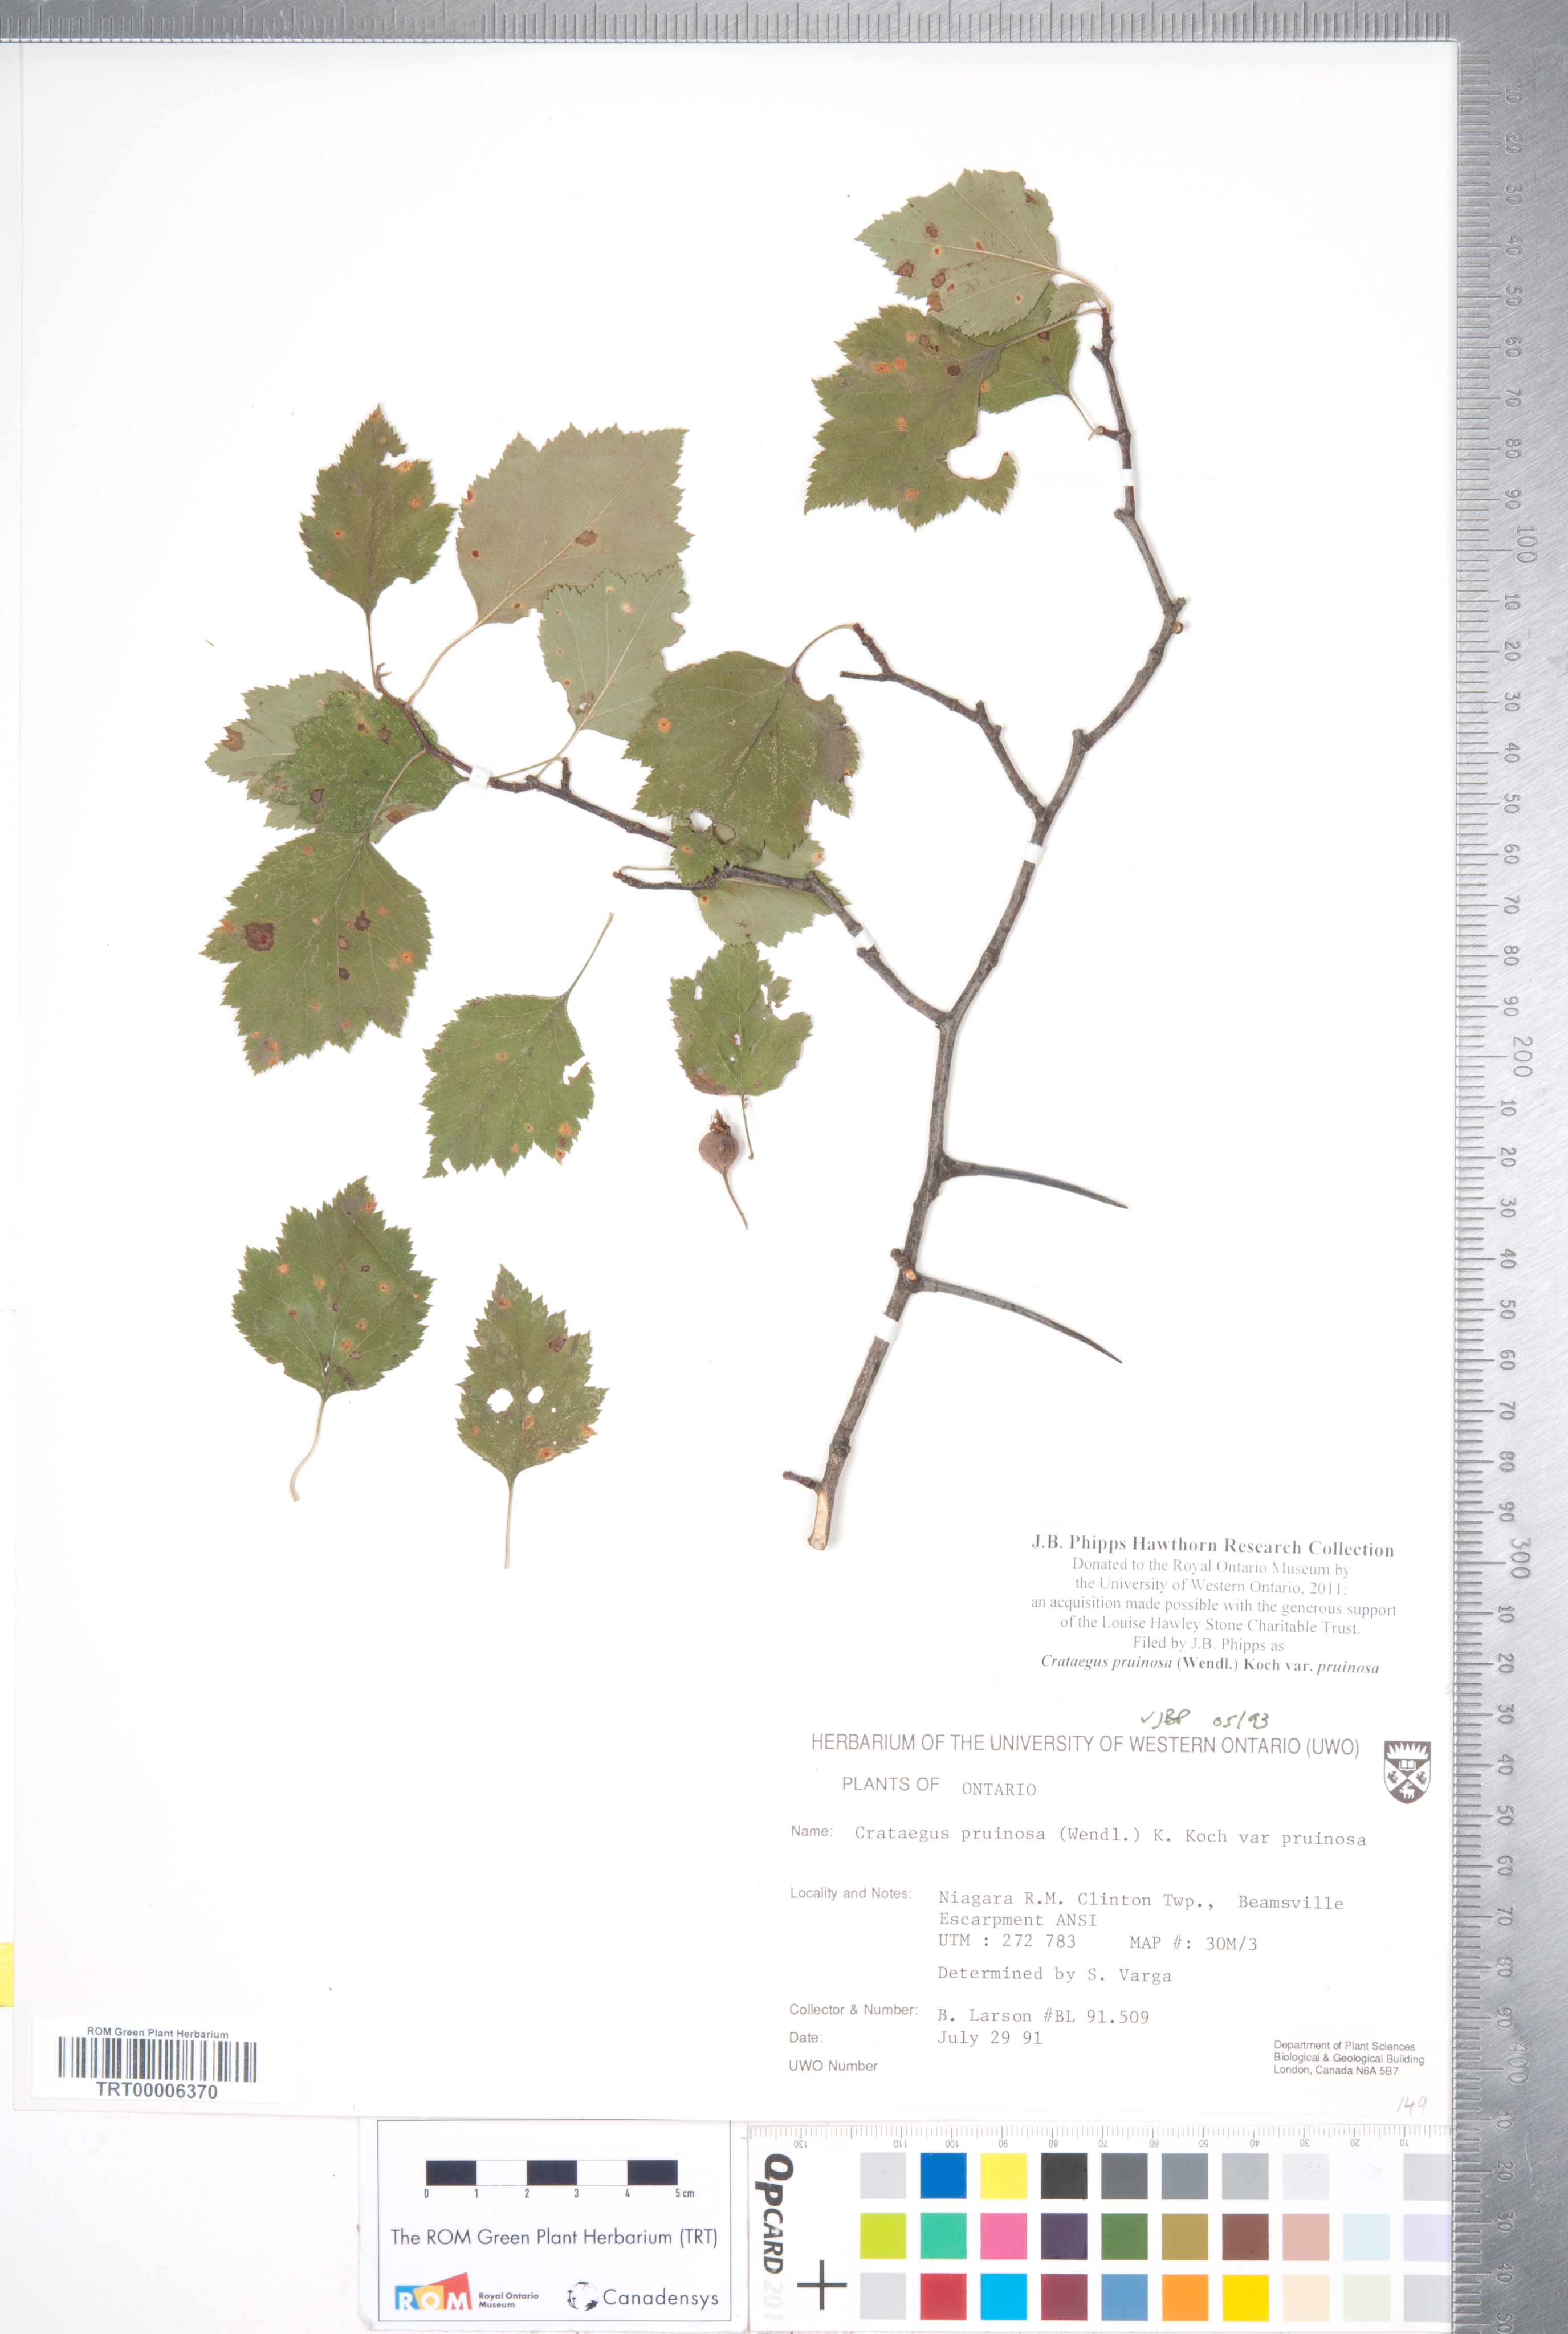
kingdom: Plantae
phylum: Tracheophyta
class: Magnoliopsida
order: Rosales
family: Rosaceae
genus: Crataegus
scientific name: Crataegus pruinosa
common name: Waxy-fruit hawthorn
